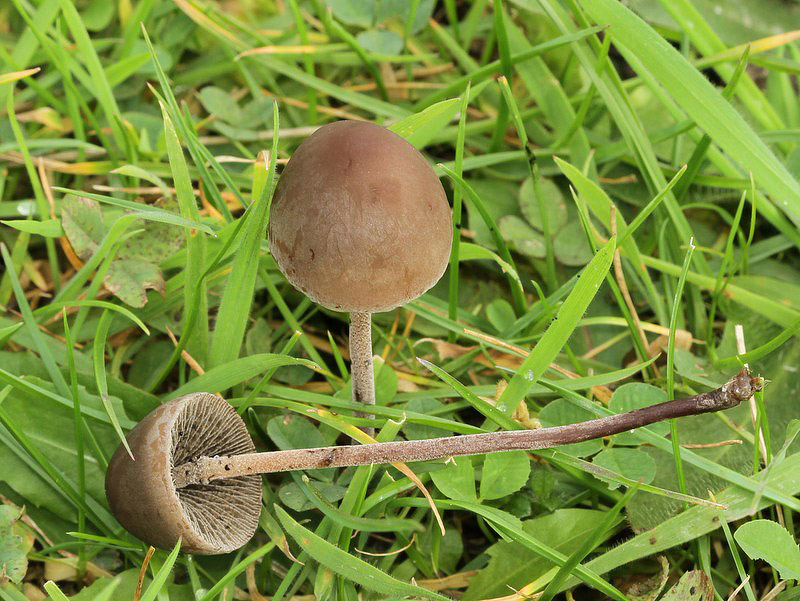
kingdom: Fungi
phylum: Basidiomycota
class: Agaricomycetes
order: Agaricales
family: Bolbitiaceae
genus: Panaeolus
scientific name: Panaeolus acuminatus
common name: høj glanshat
